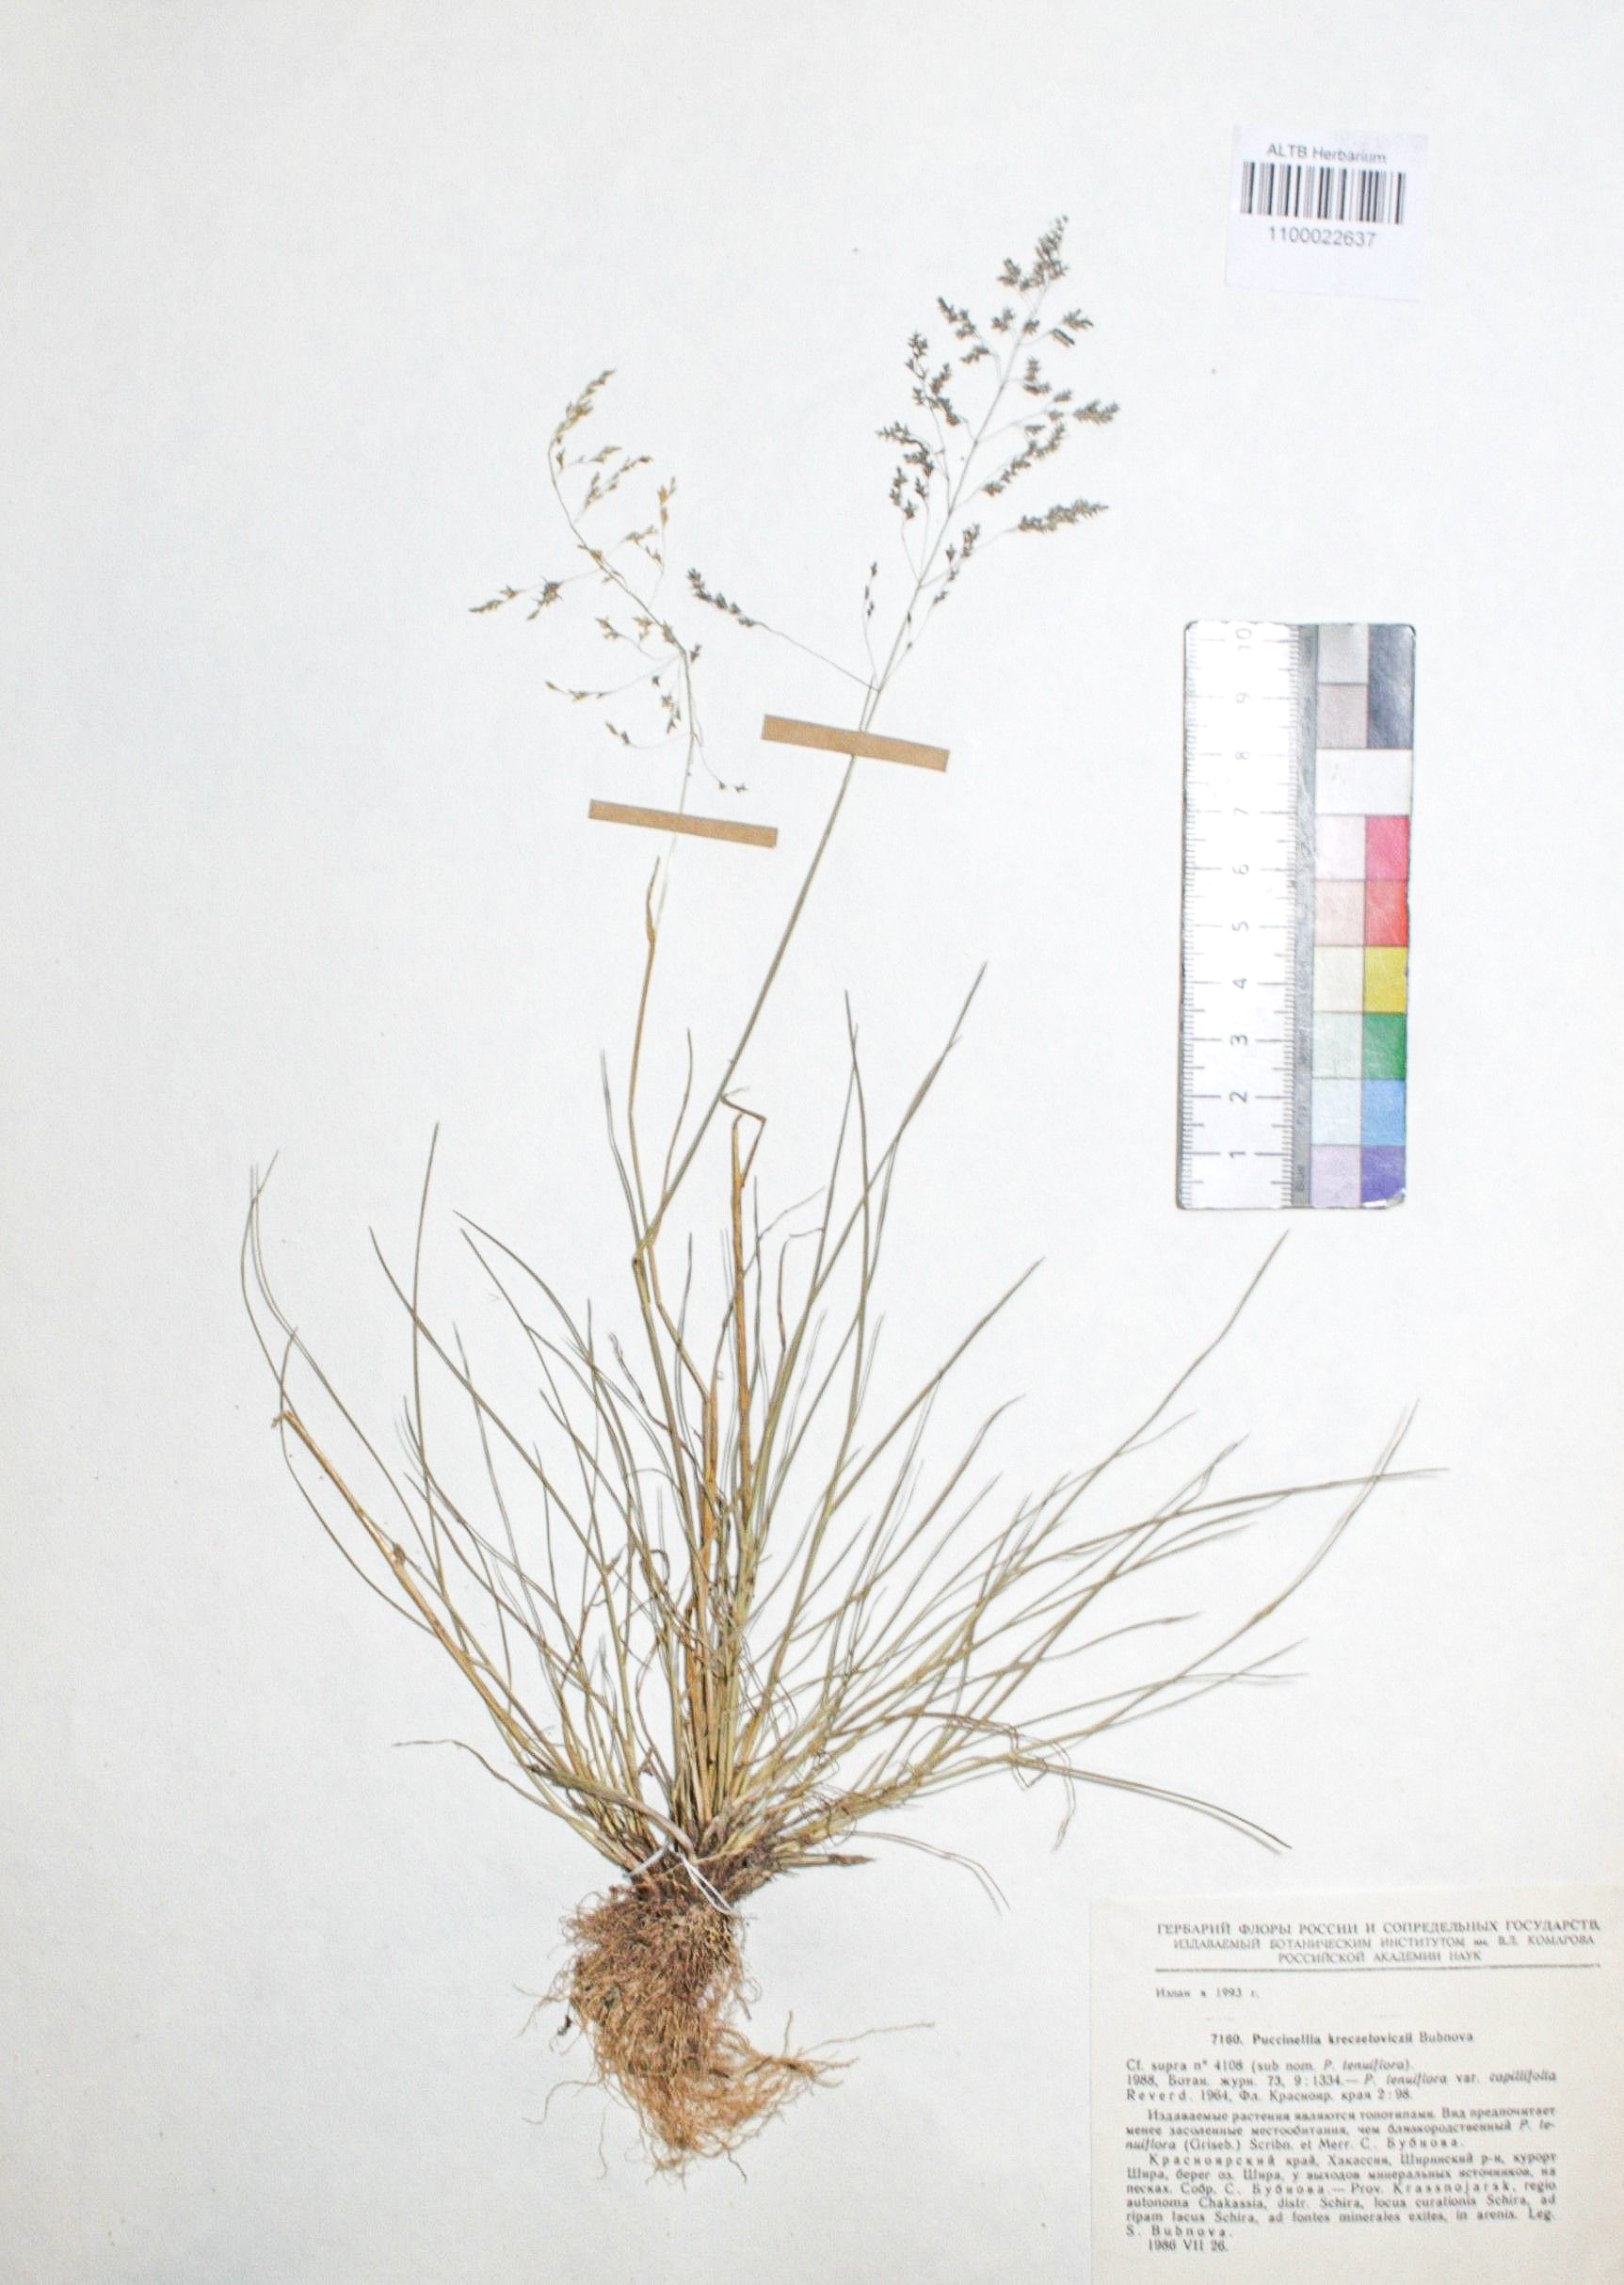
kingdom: Plantae
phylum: Tracheophyta
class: Liliopsida
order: Poales
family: Poaceae
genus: Puccinellia
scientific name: Puccinellia tenuiflora
